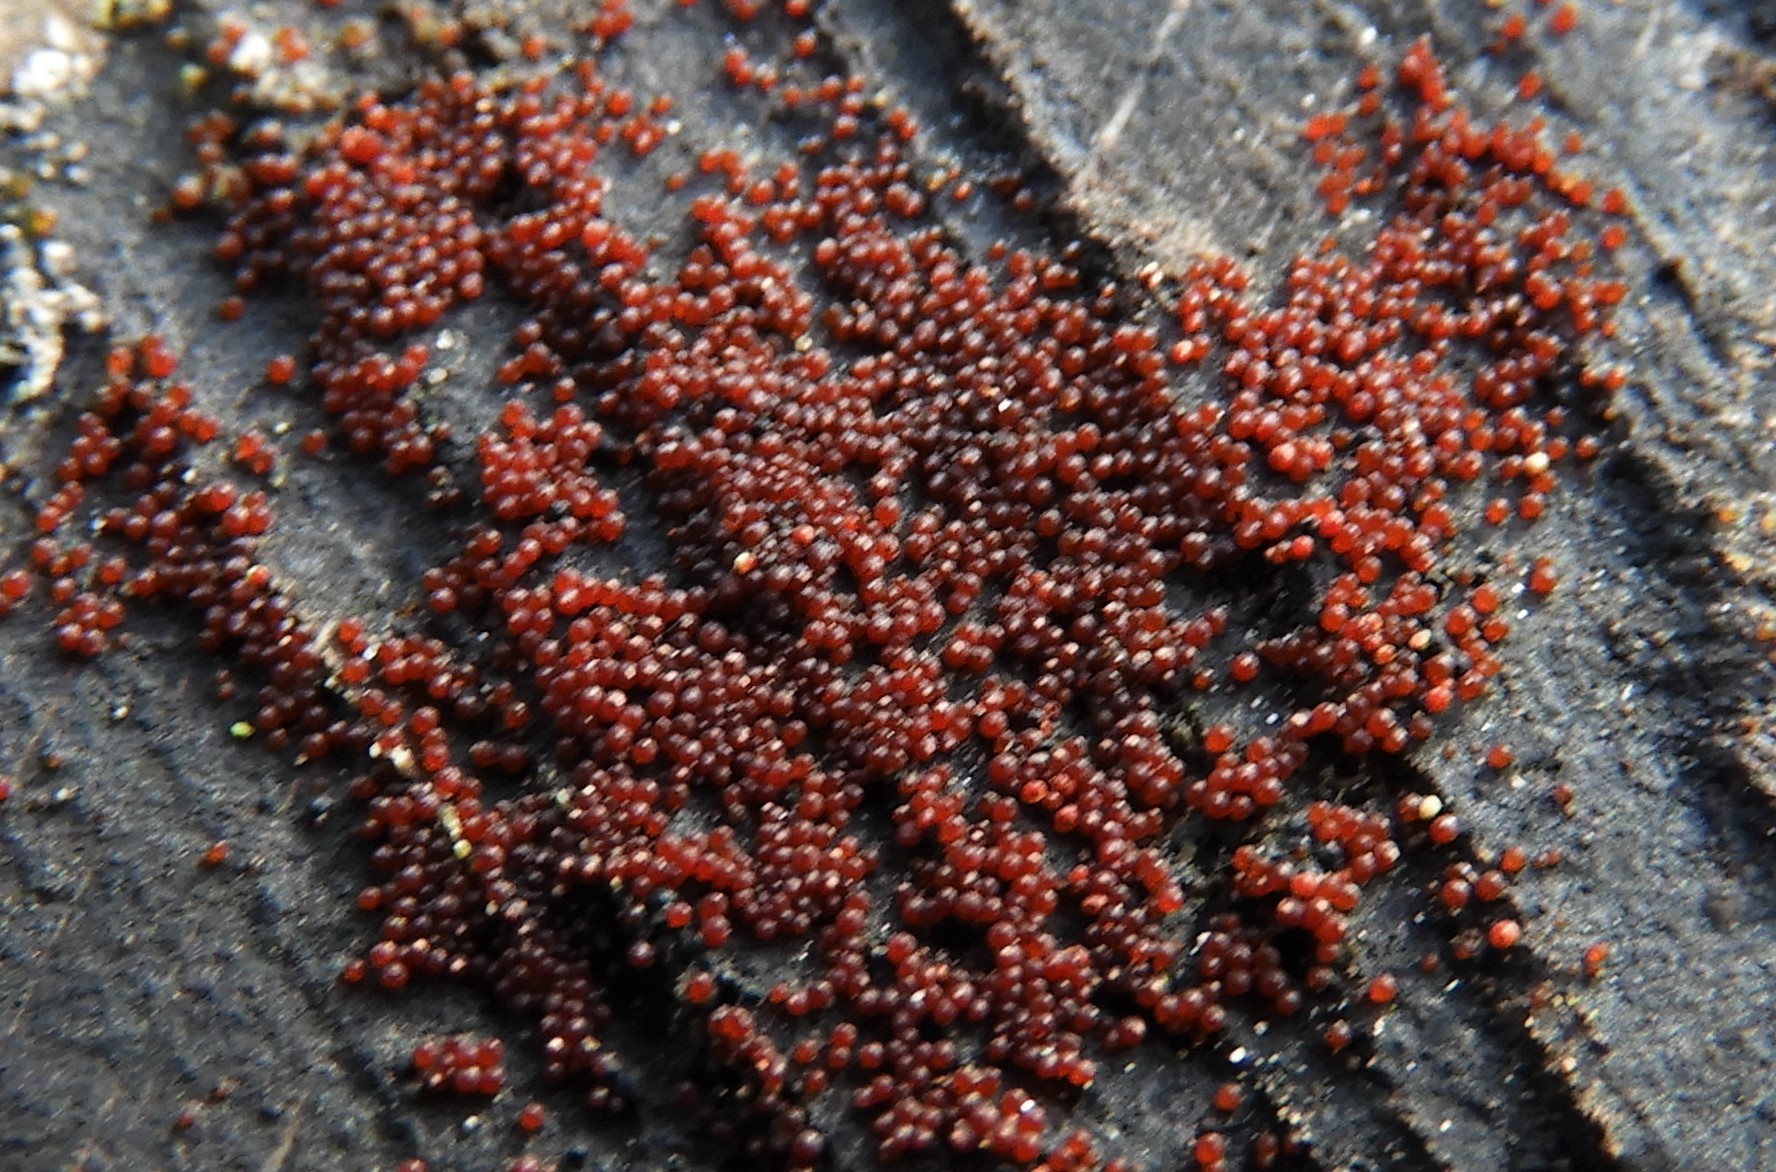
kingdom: Fungi
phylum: Ascomycota
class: Sordariomycetes
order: Hypocreales
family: Nectriaceae
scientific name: Nectriaceae
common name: cinnobersvampfamilien
